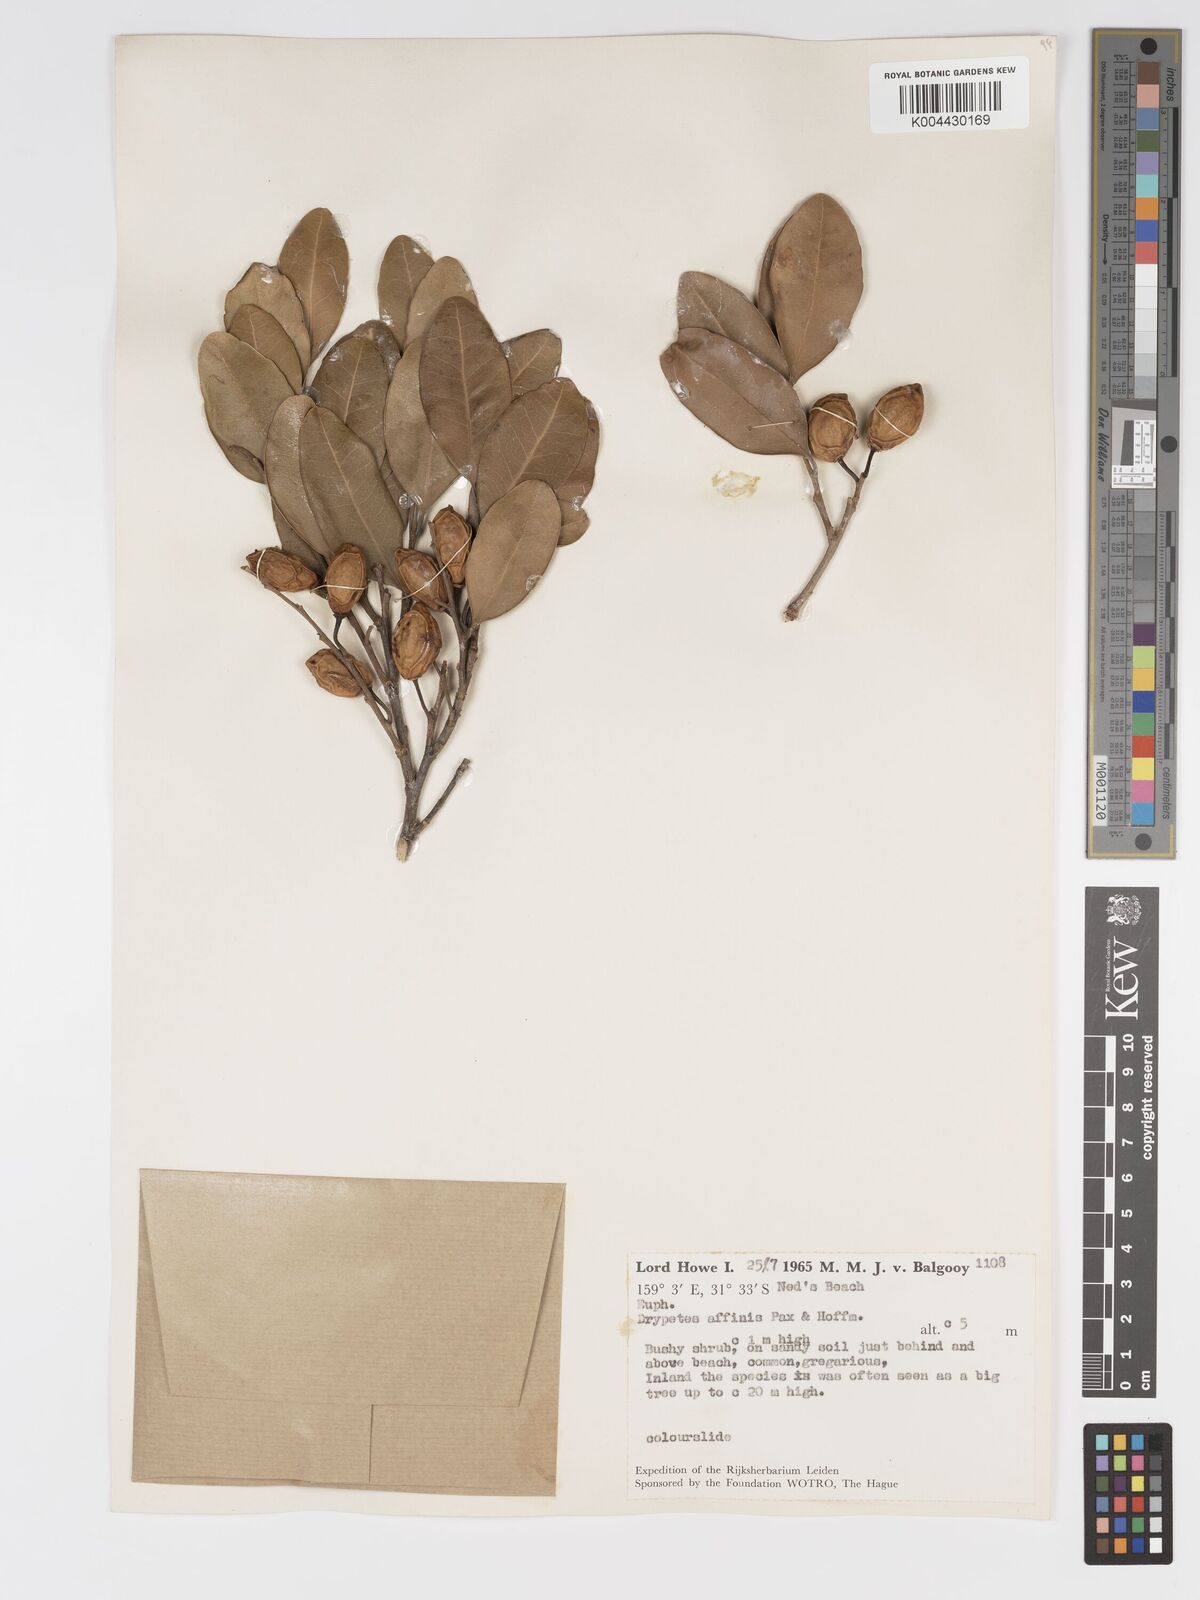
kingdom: Plantae
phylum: Tracheophyta
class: Magnoliopsida
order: Malpighiales
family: Putranjivaceae
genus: Drypetes
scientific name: Drypetes deplanchei
